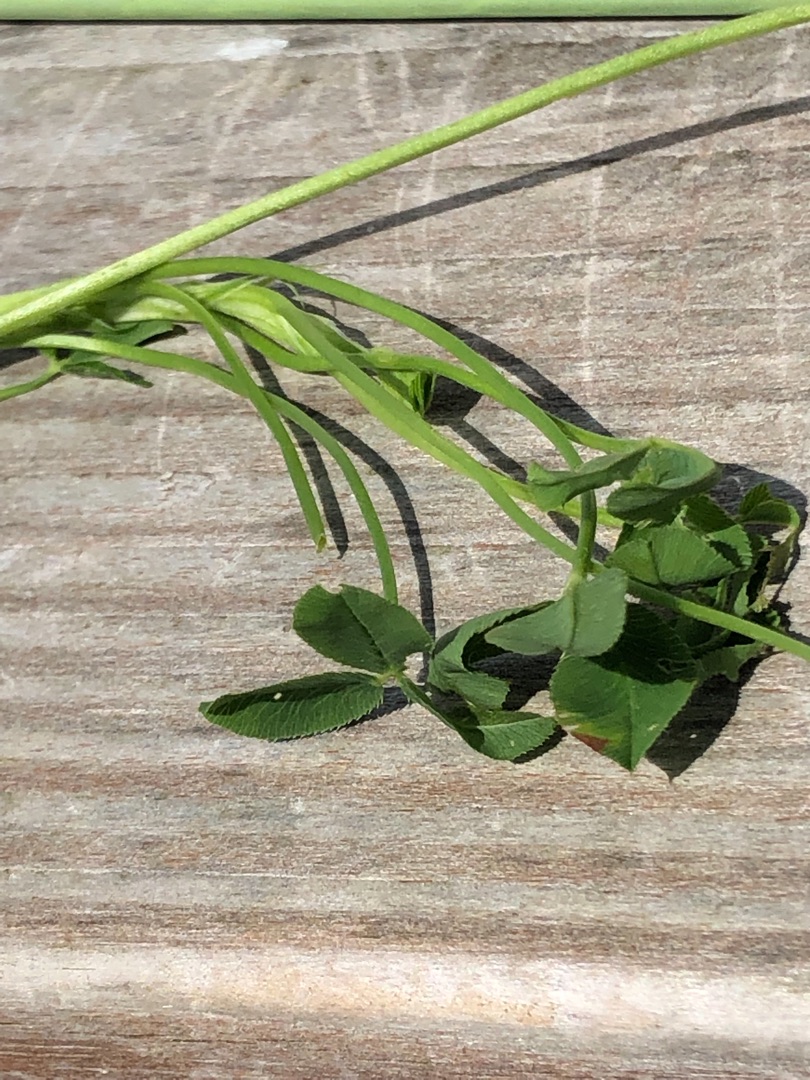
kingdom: Plantae
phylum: Tracheophyta
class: Magnoliopsida
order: Fabales
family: Fabaceae
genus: Trifolium
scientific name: Trifolium fragiferum
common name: Jordbær-kløver
